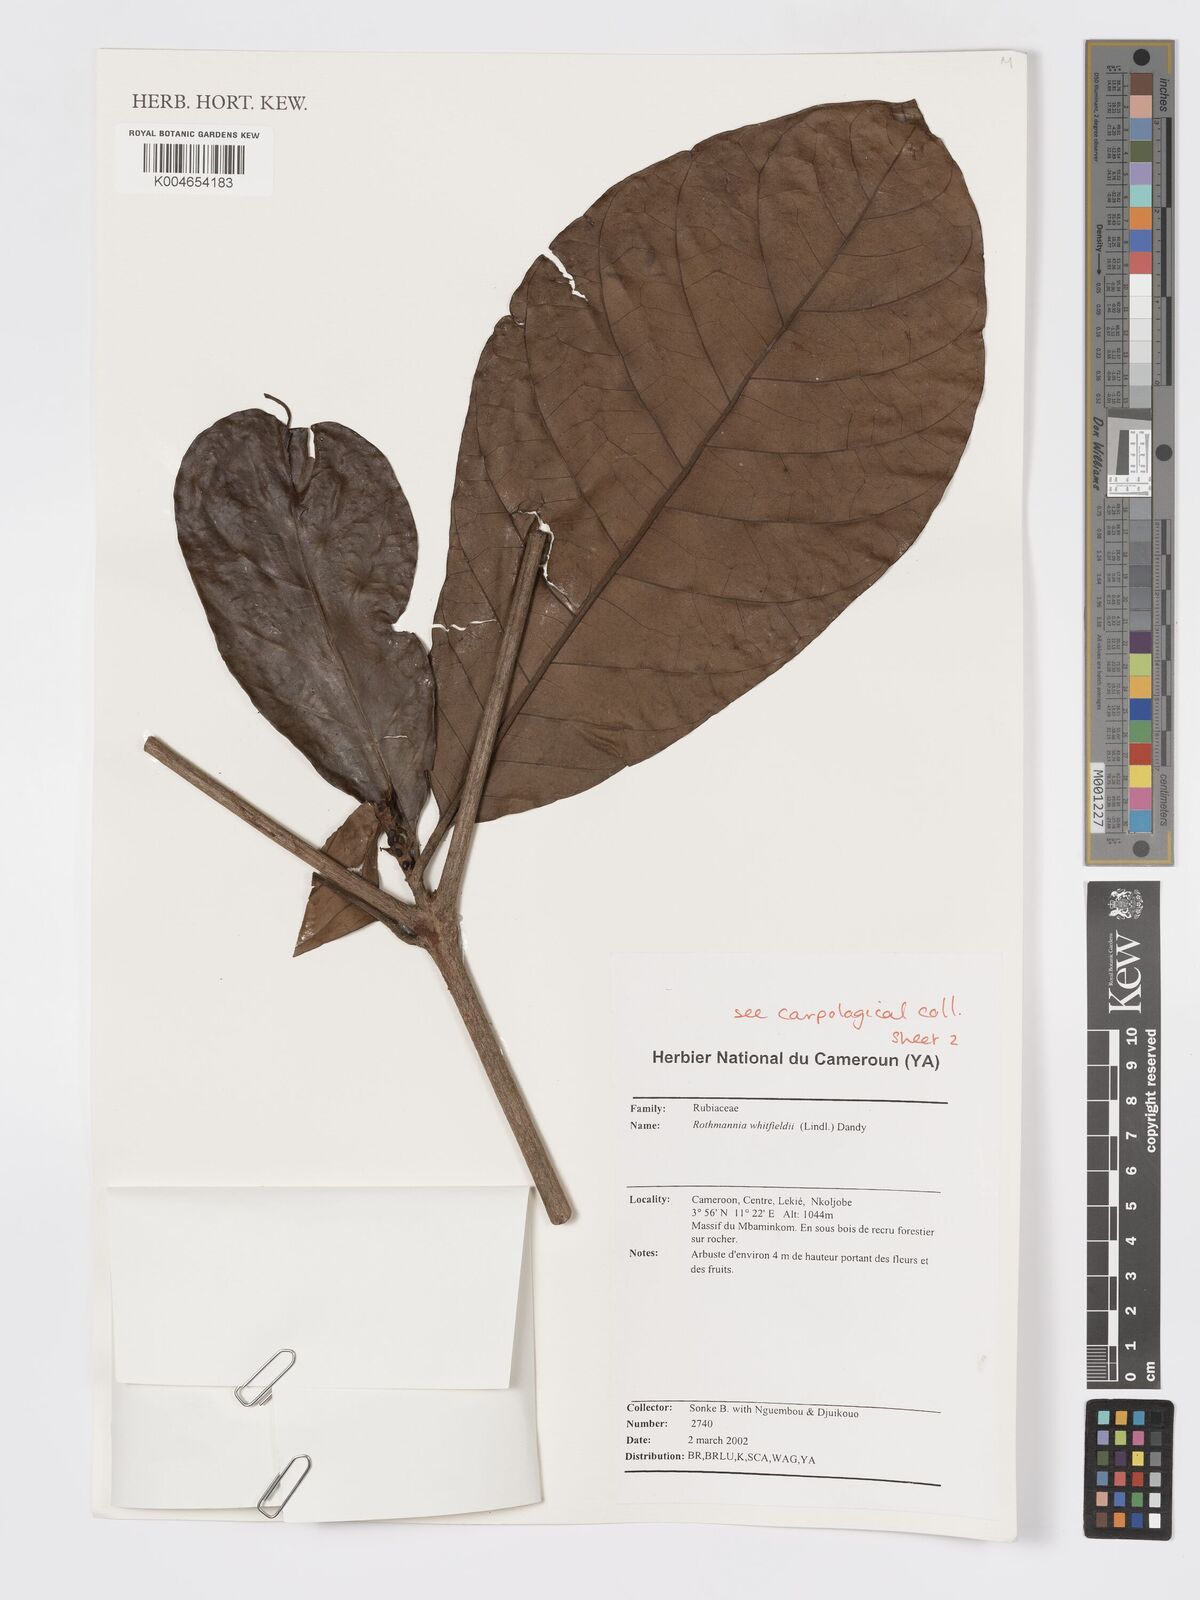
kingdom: Plantae
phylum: Tracheophyta
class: Magnoliopsida
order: Gentianales
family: Rubiaceae
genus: Rothmannia
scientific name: Rothmannia whitfieldii
